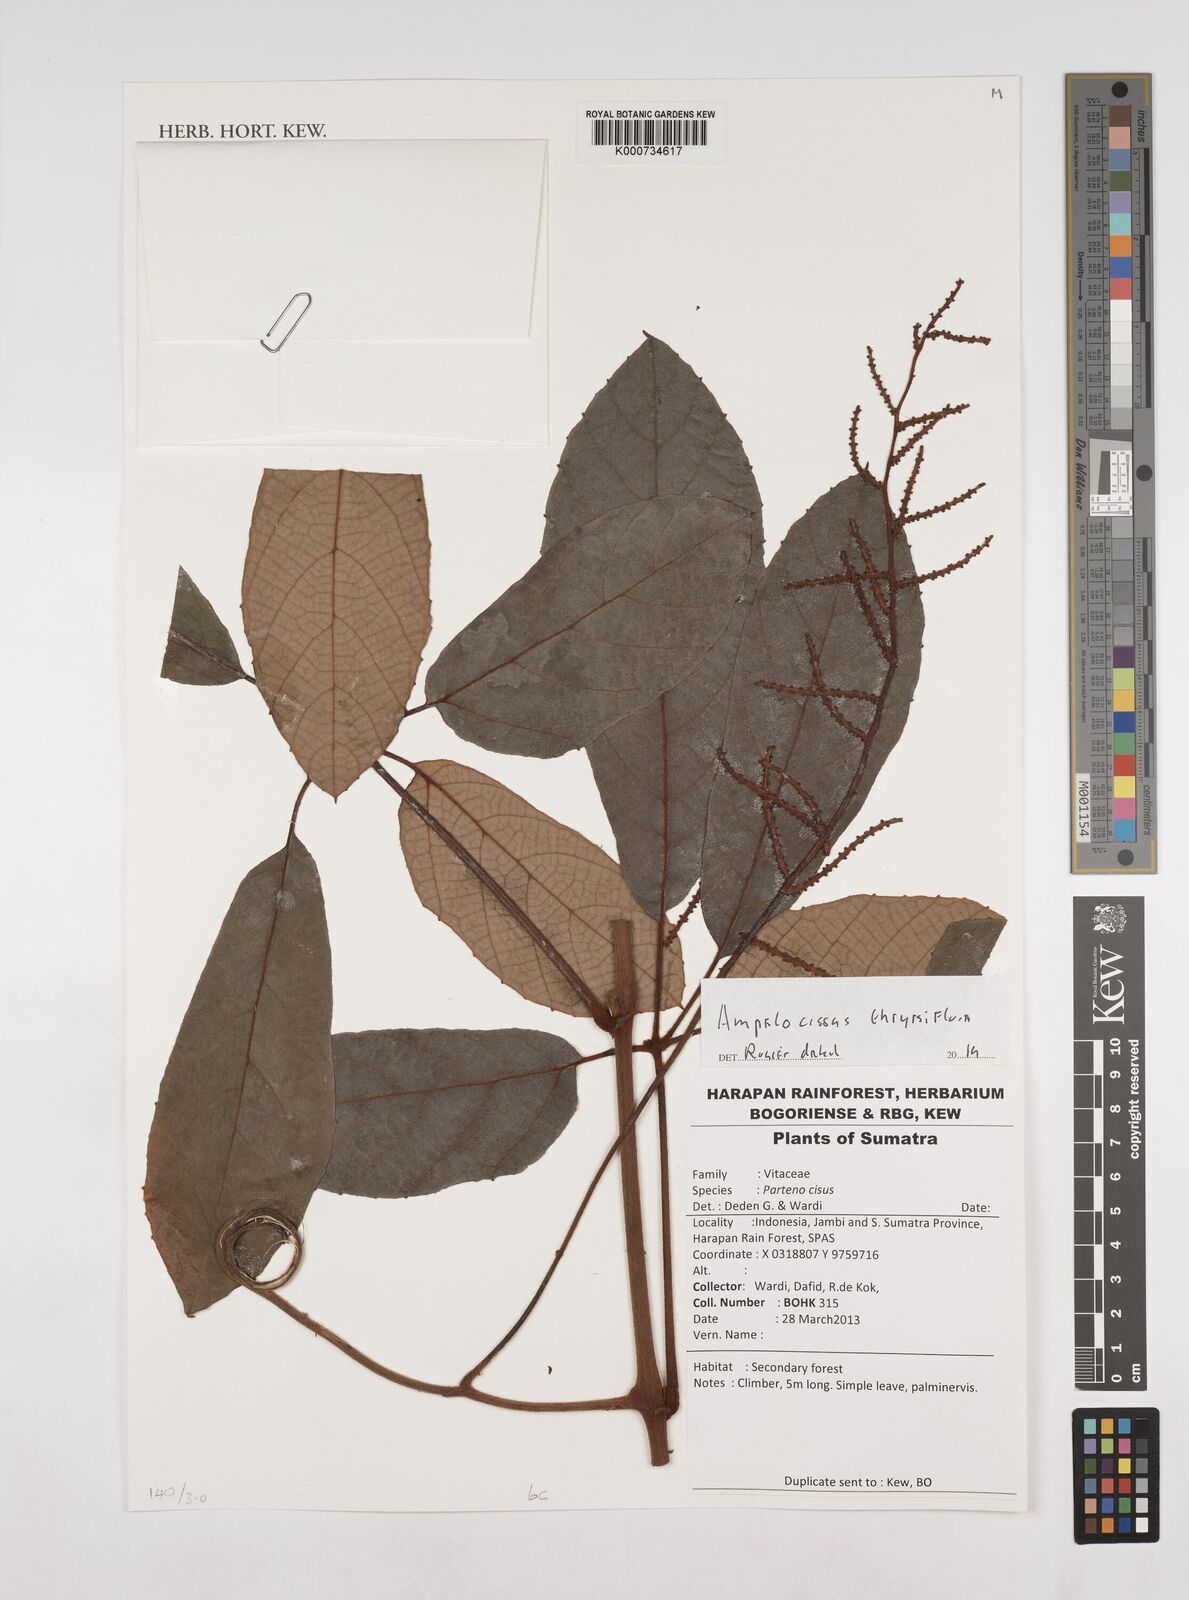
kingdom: Plantae
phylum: Tracheophyta
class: Magnoliopsida
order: Vitales
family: Vitaceae
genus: Ampelocissus
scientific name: Ampelocissus thyrsiflora
